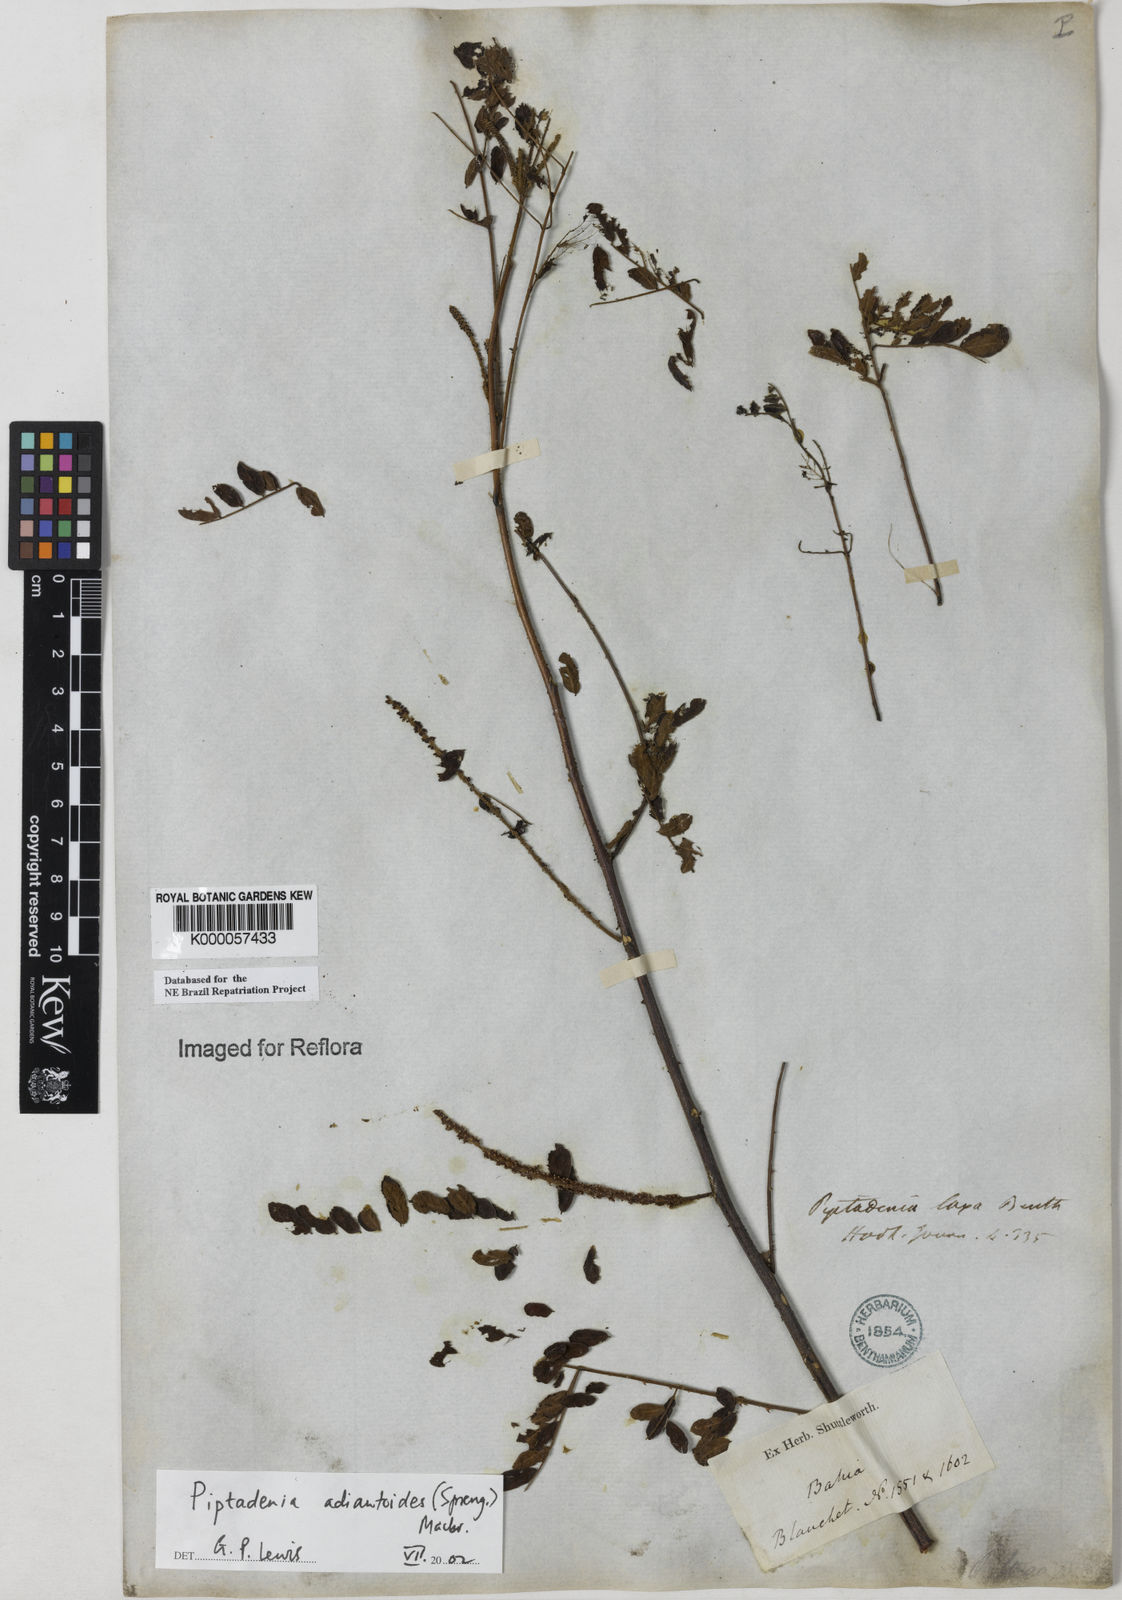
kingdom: Plantae
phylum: Tracheophyta
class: Magnoliopsida
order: Fabales
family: Fabaceae
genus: Piptadenia
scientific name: Piptadenia adiantoides
